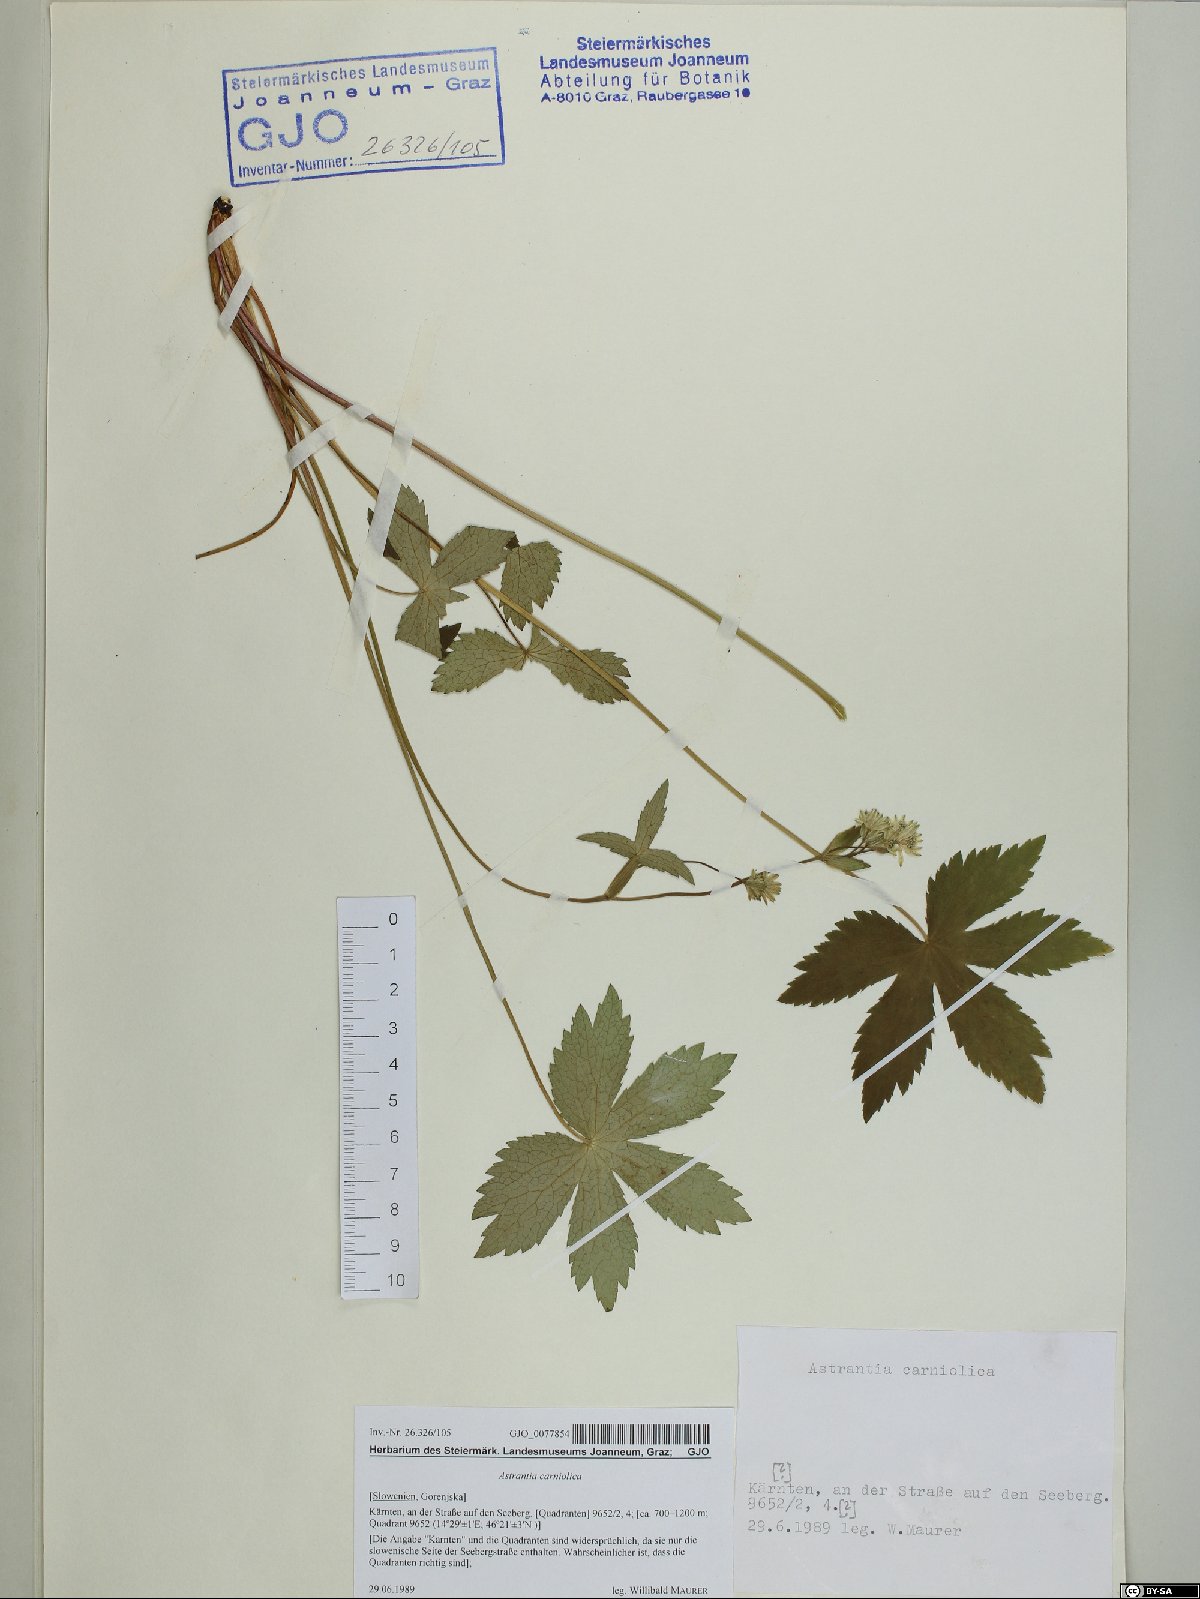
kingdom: Plantae
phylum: Tracheophyta
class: Magnoliopsida
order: Apiales
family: Apiaceae
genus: Astrantia
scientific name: Astrantia carniolica
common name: Carnic masterwort
